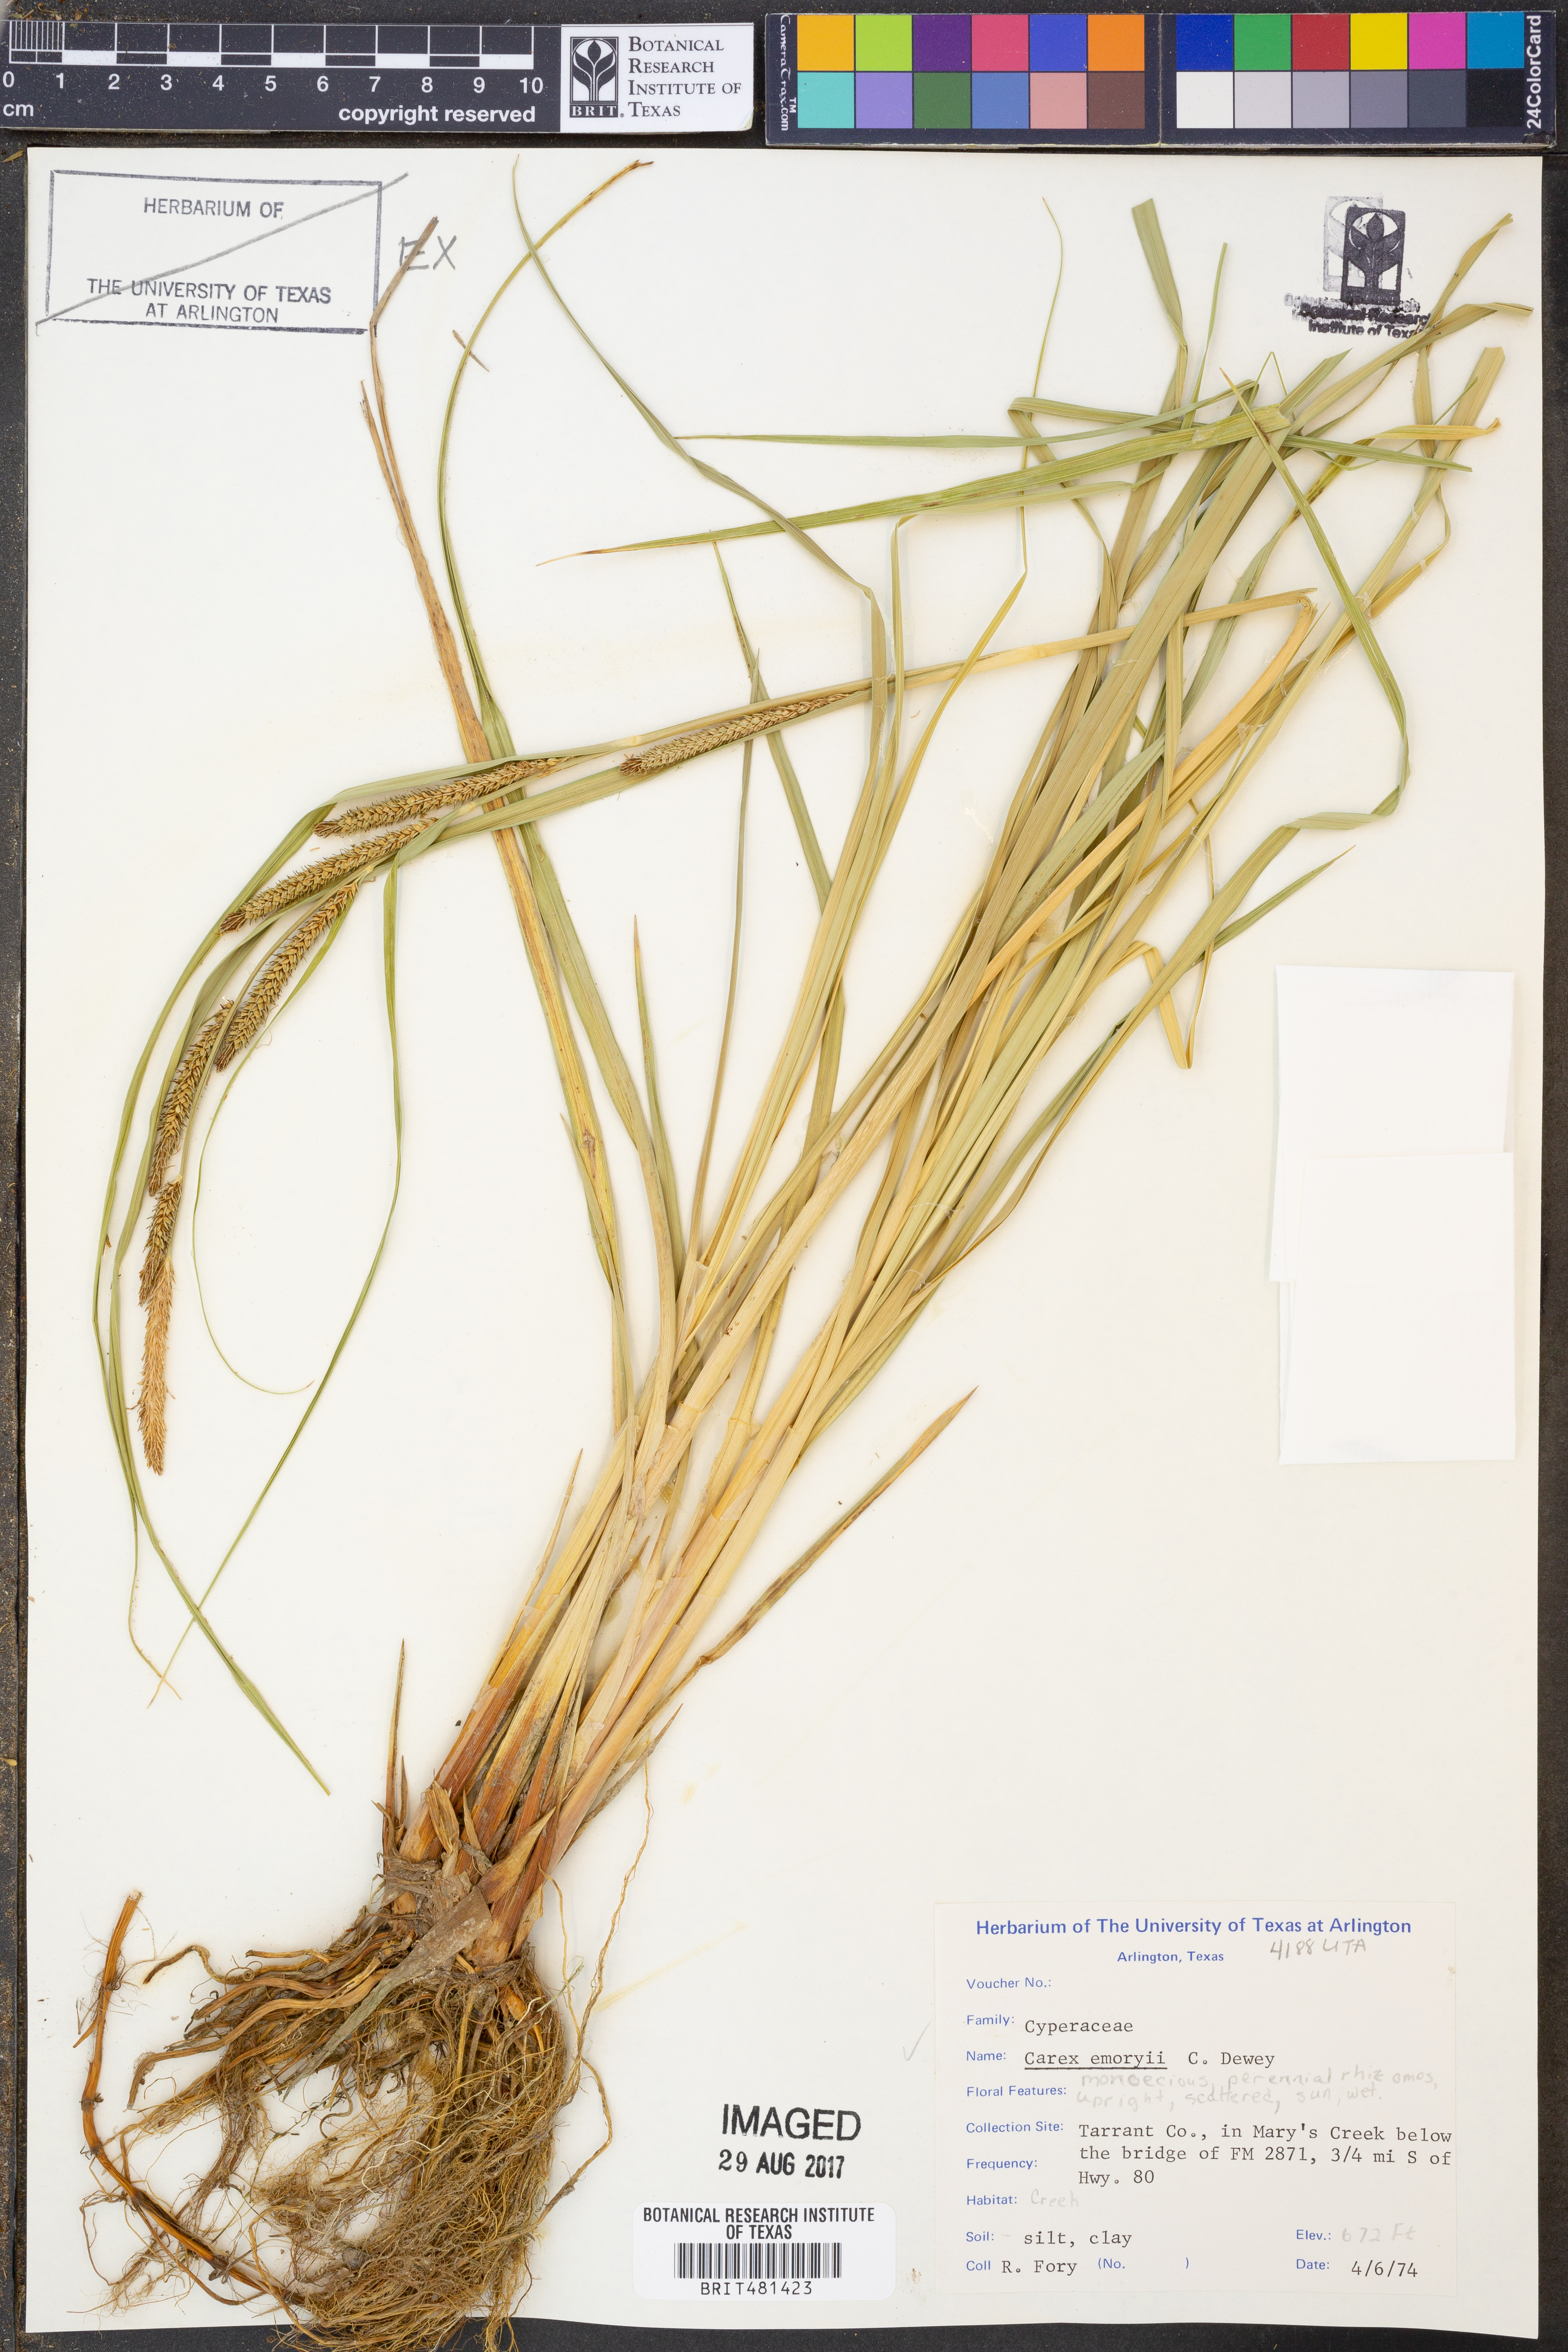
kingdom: Plantae
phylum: Tracheophyta
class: Liliopsida
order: Poales
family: Cyperaceae
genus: Carex
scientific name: Carex emoryi
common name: Emory's sedge
